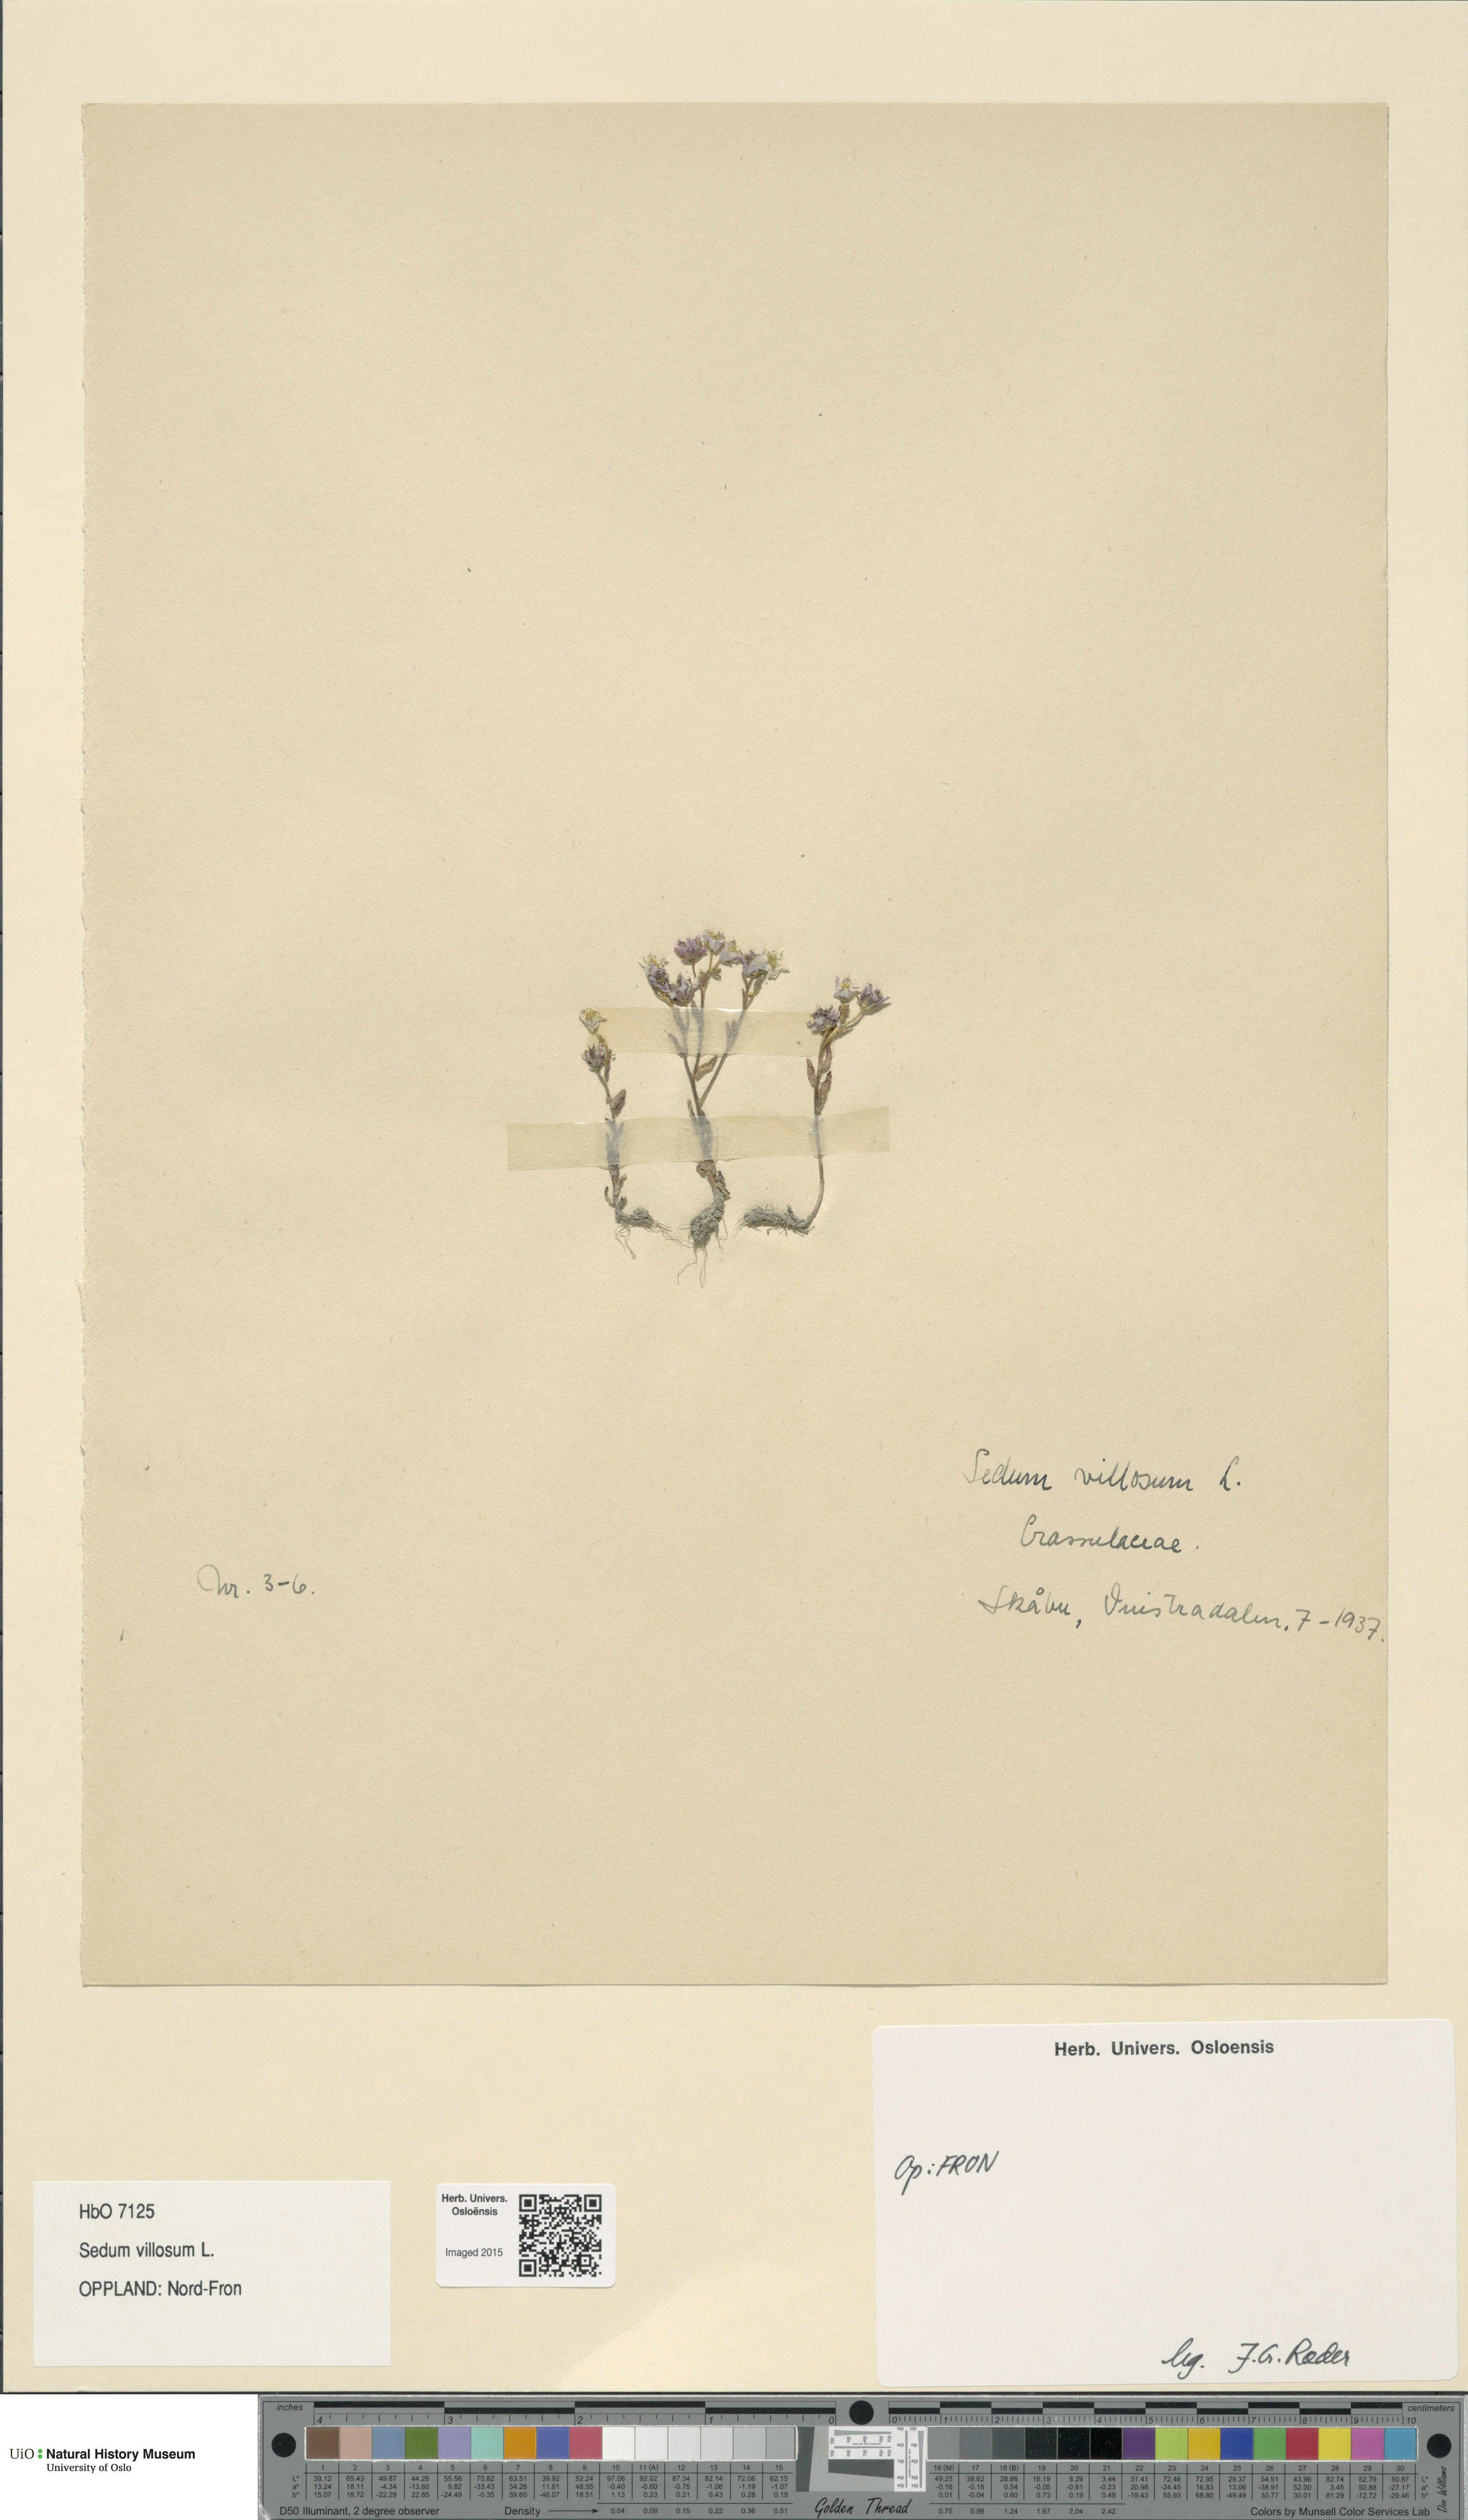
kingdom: Plantae
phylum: Tracheophyta
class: Magnoliopsida
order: Saxifragales
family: Crassulaceae
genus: Sedum
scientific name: Sedum villosum
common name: Hairy stonecrop
